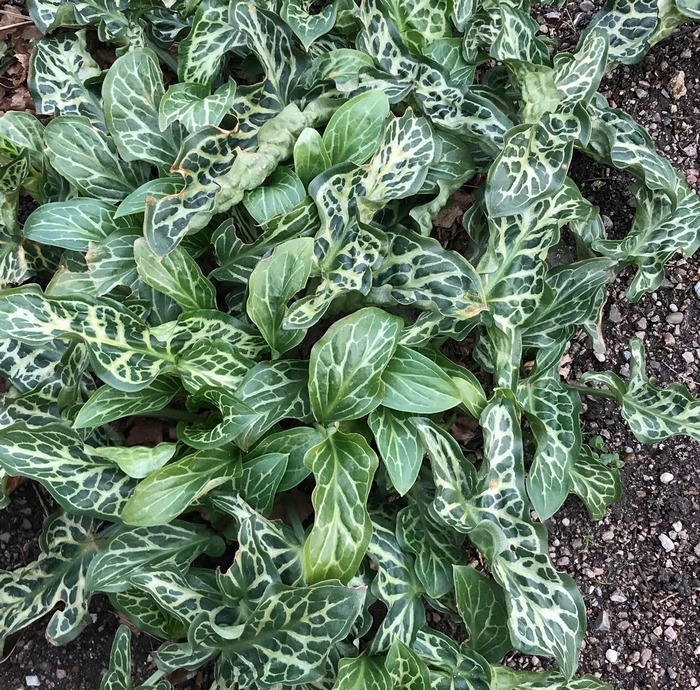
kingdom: Plantae
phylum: Tracheophyta
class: Liliopsida
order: Alismatales
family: Araceae
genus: Arum
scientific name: Arum italicum
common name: Italiensk arum
